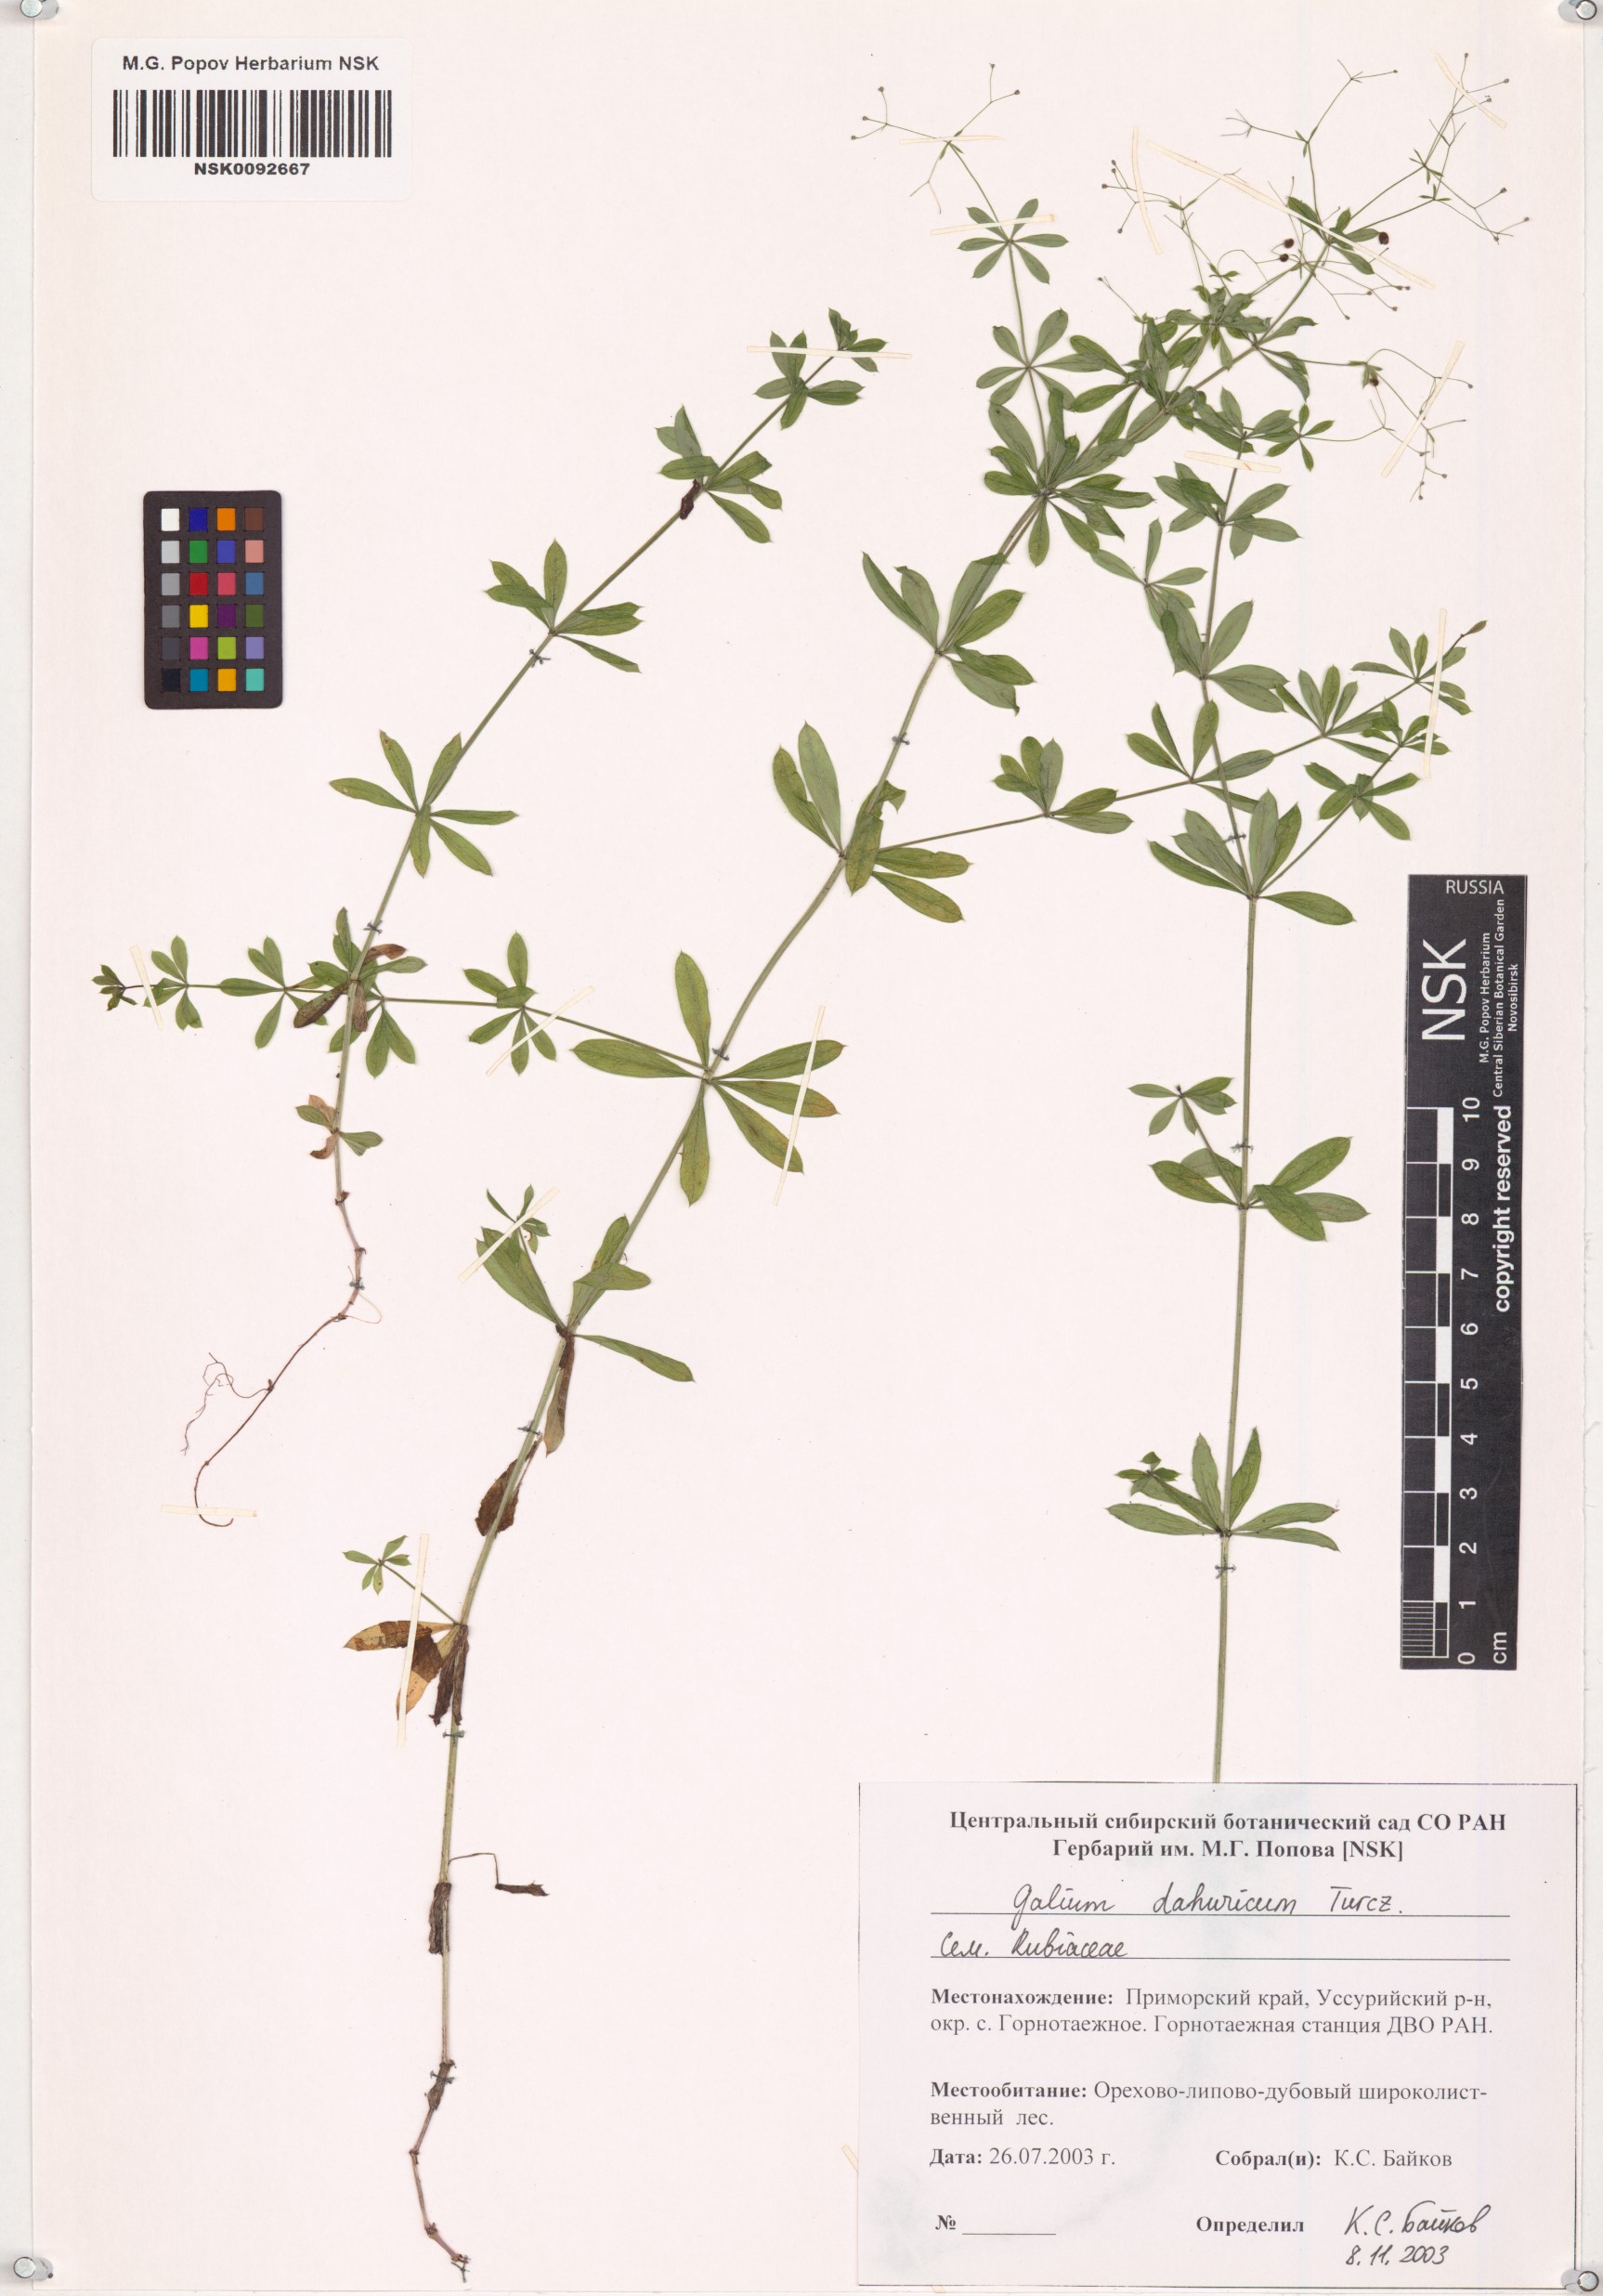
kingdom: Plantae
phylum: Tracheophyta
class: Magnoliopsida
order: Gentianales
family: Rubiaceae
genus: Galium
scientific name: Galium dahuricum
